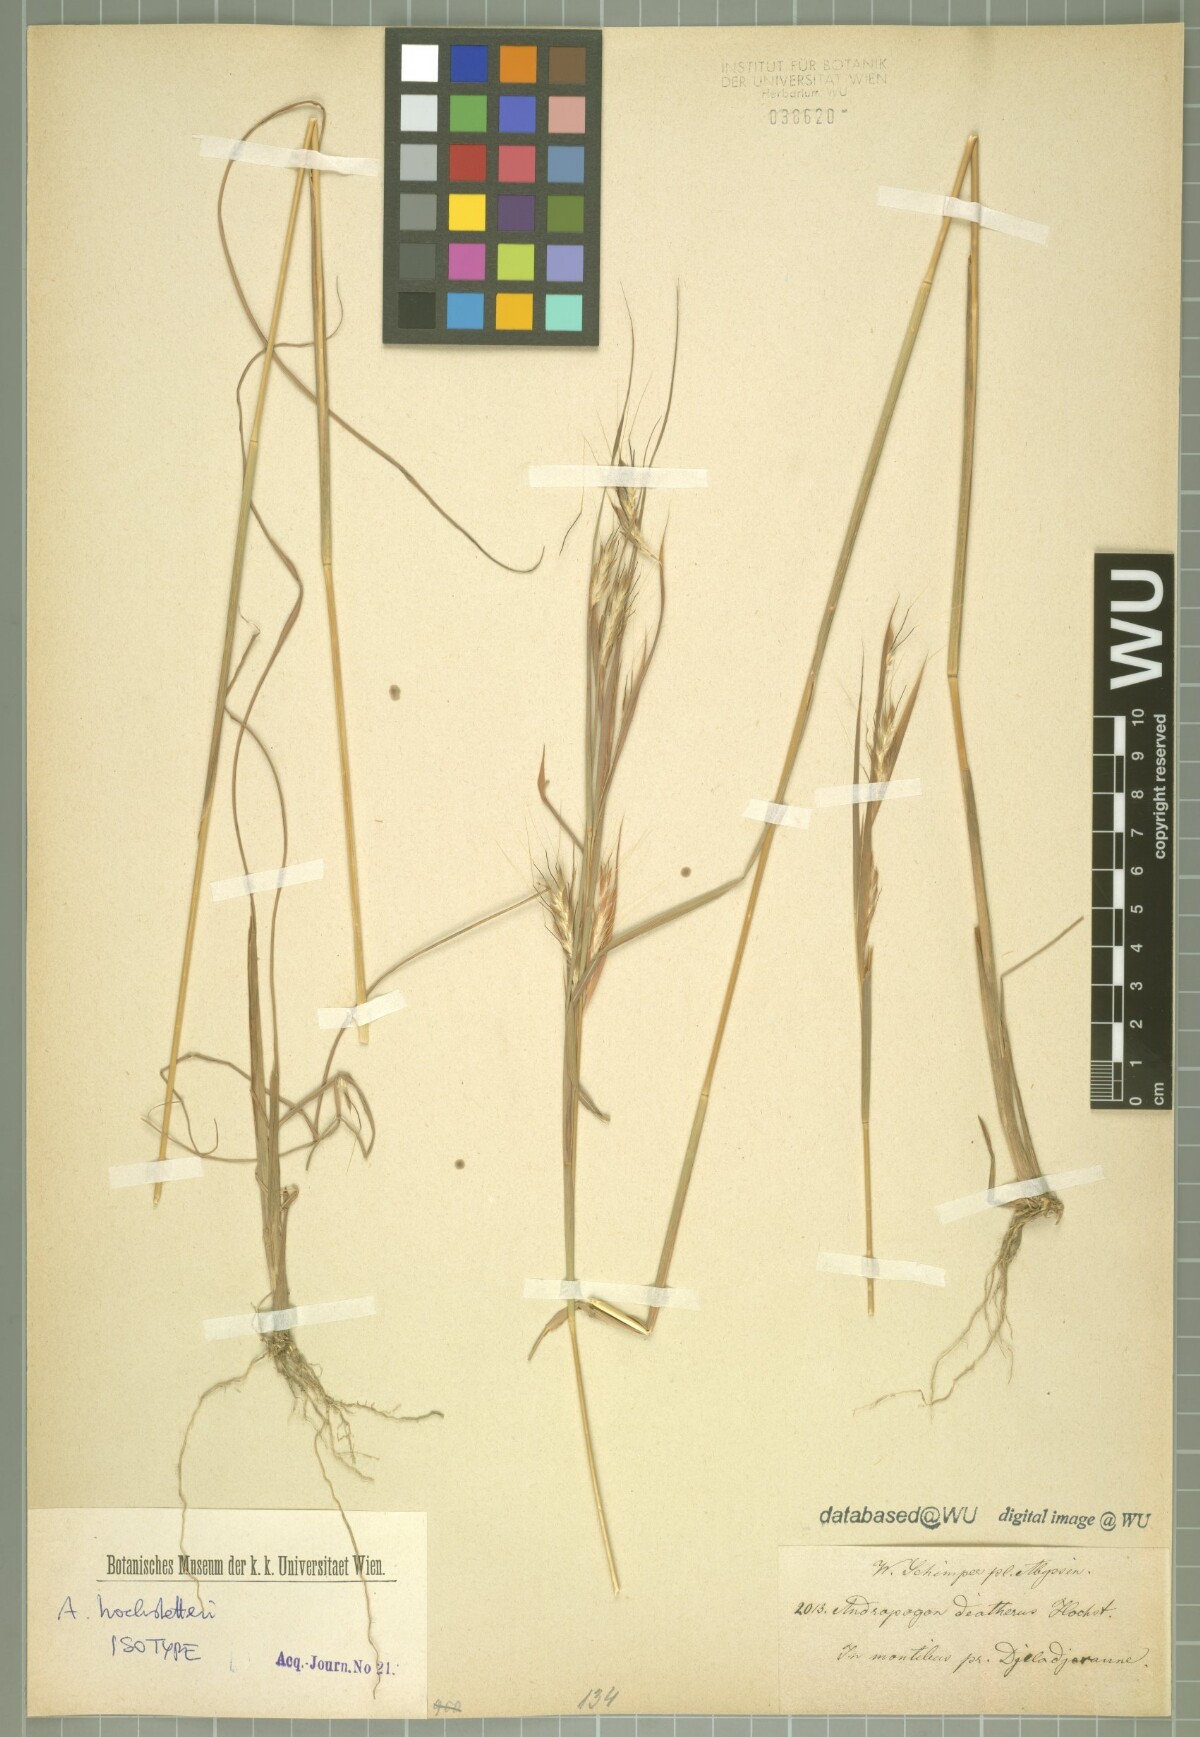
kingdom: Plantae
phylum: Tracheophyta
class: Liliopsida
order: Poales
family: Poaceae
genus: Diectomis
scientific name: Diectomis fastigiata
